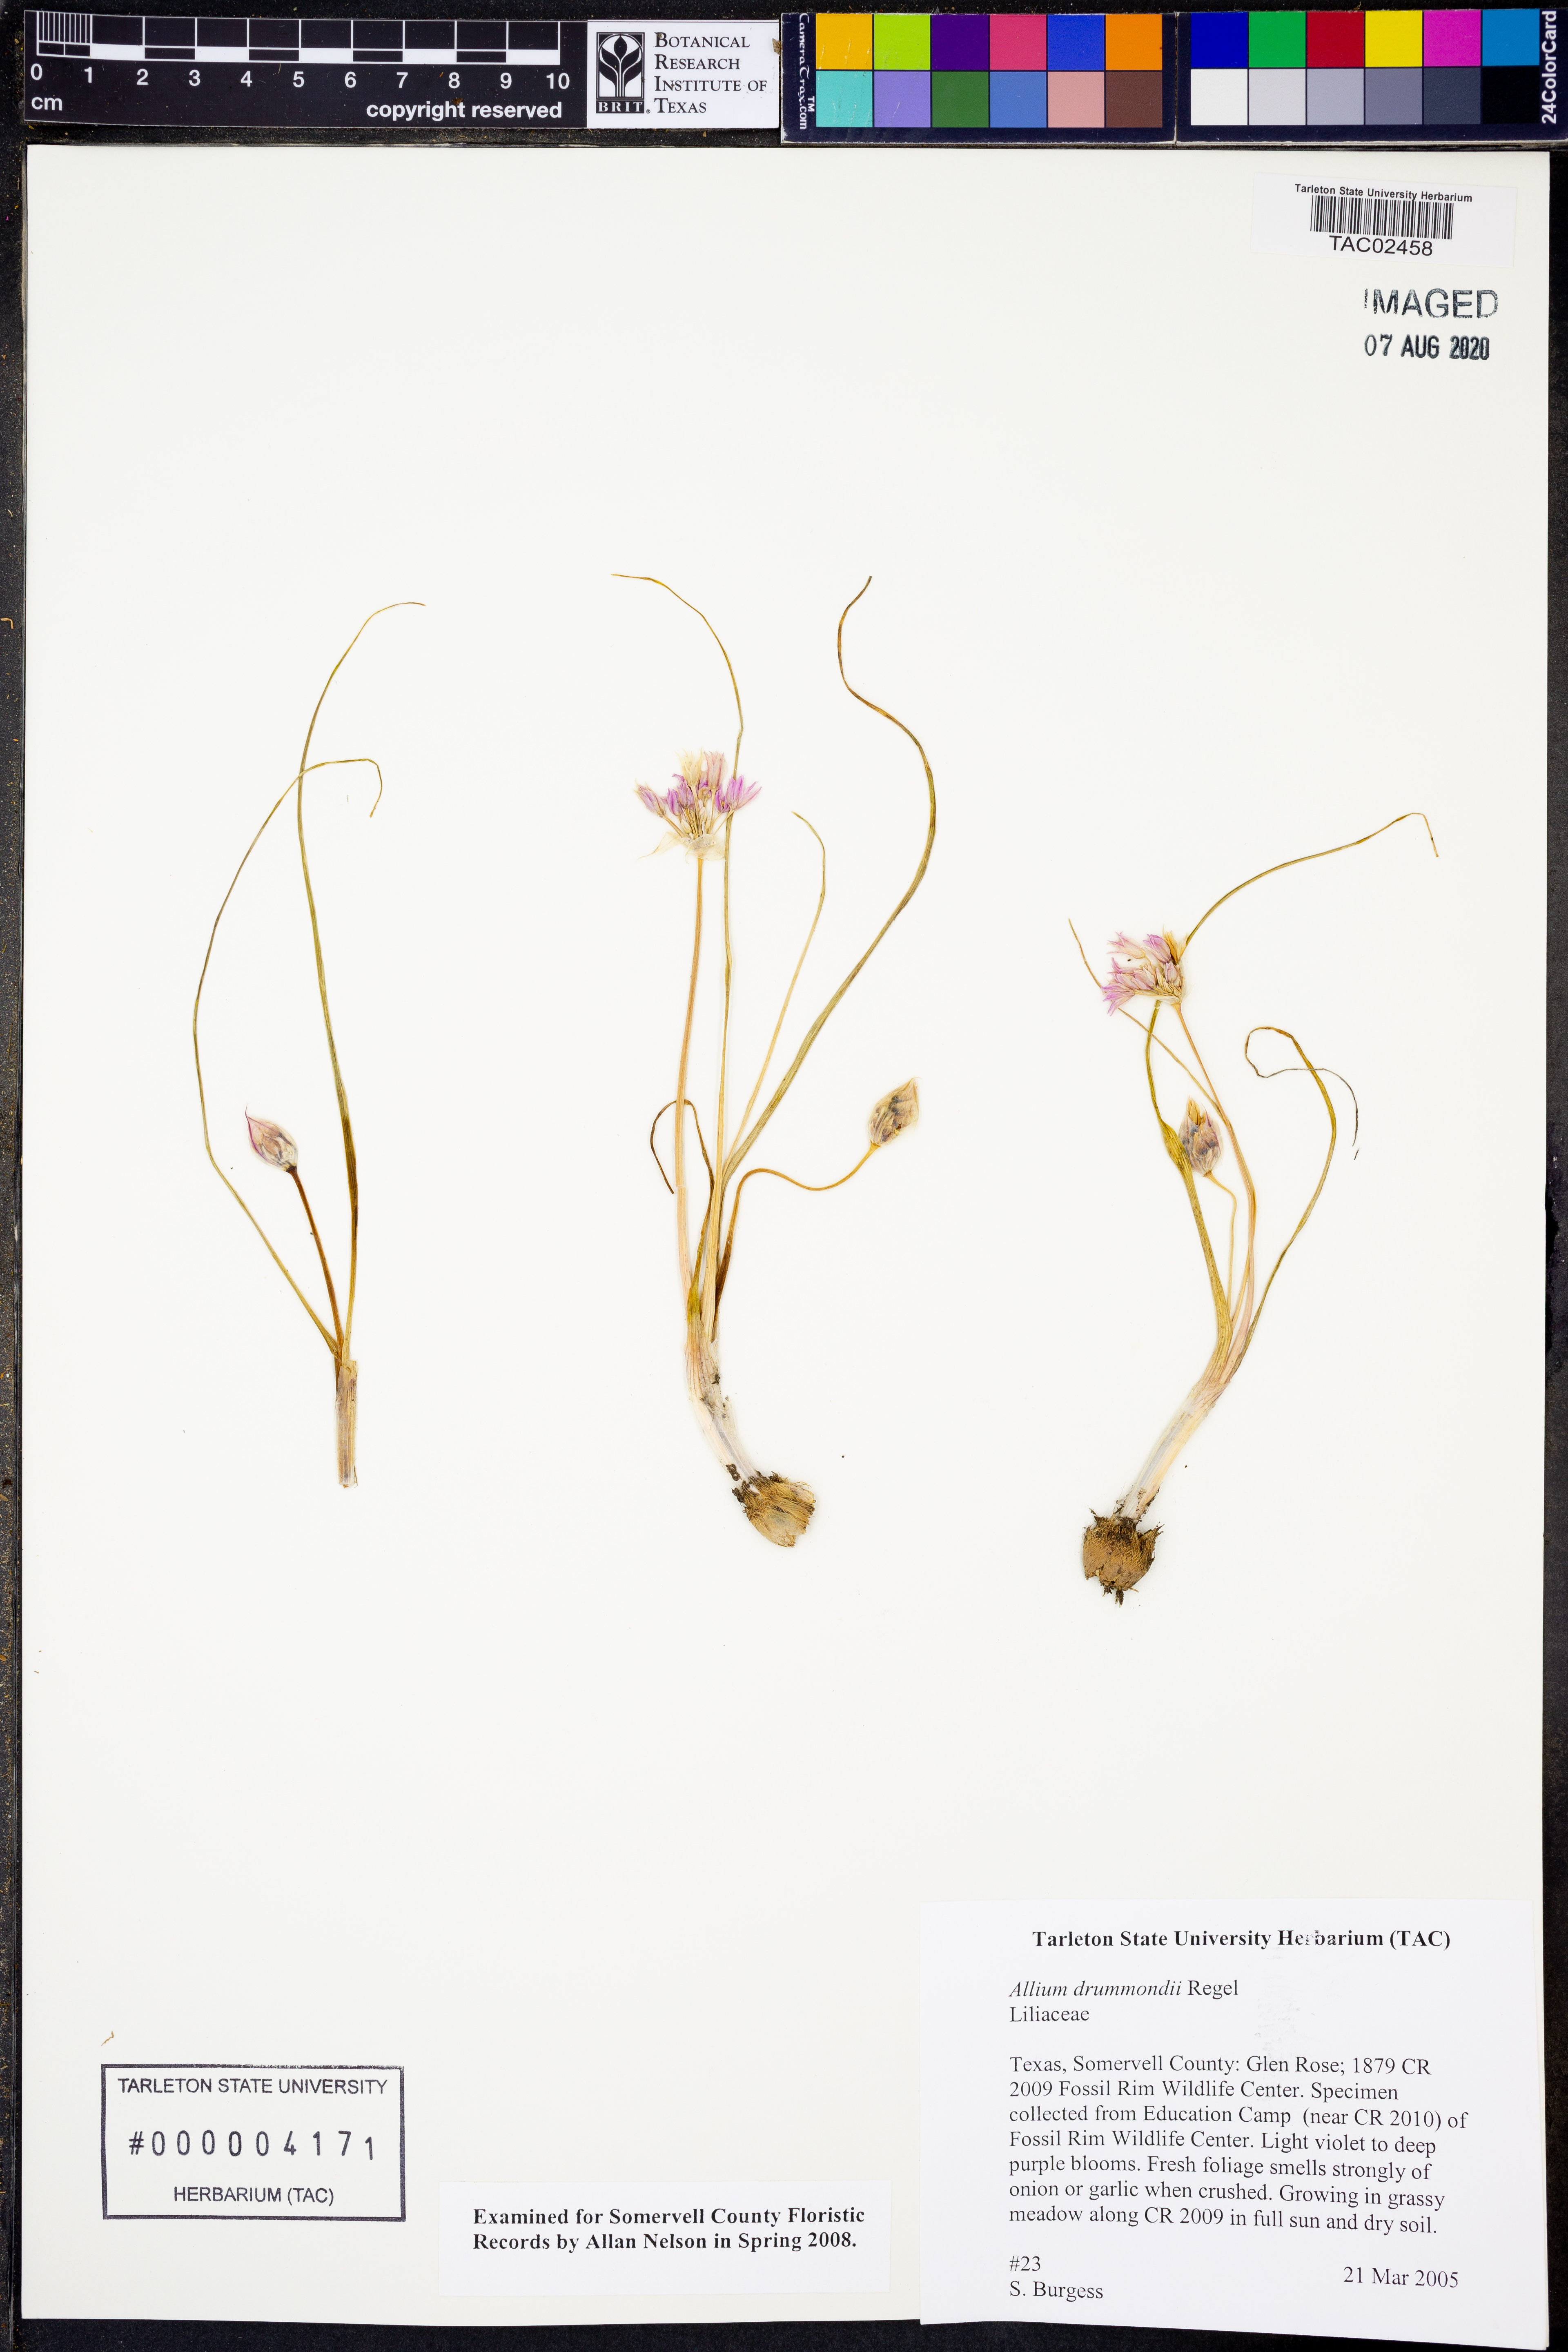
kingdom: Plantae
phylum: Tracheophyta
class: Liliopsida
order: Asparagales
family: Amaryllidaceae
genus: Allium
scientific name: Allium drummondii
